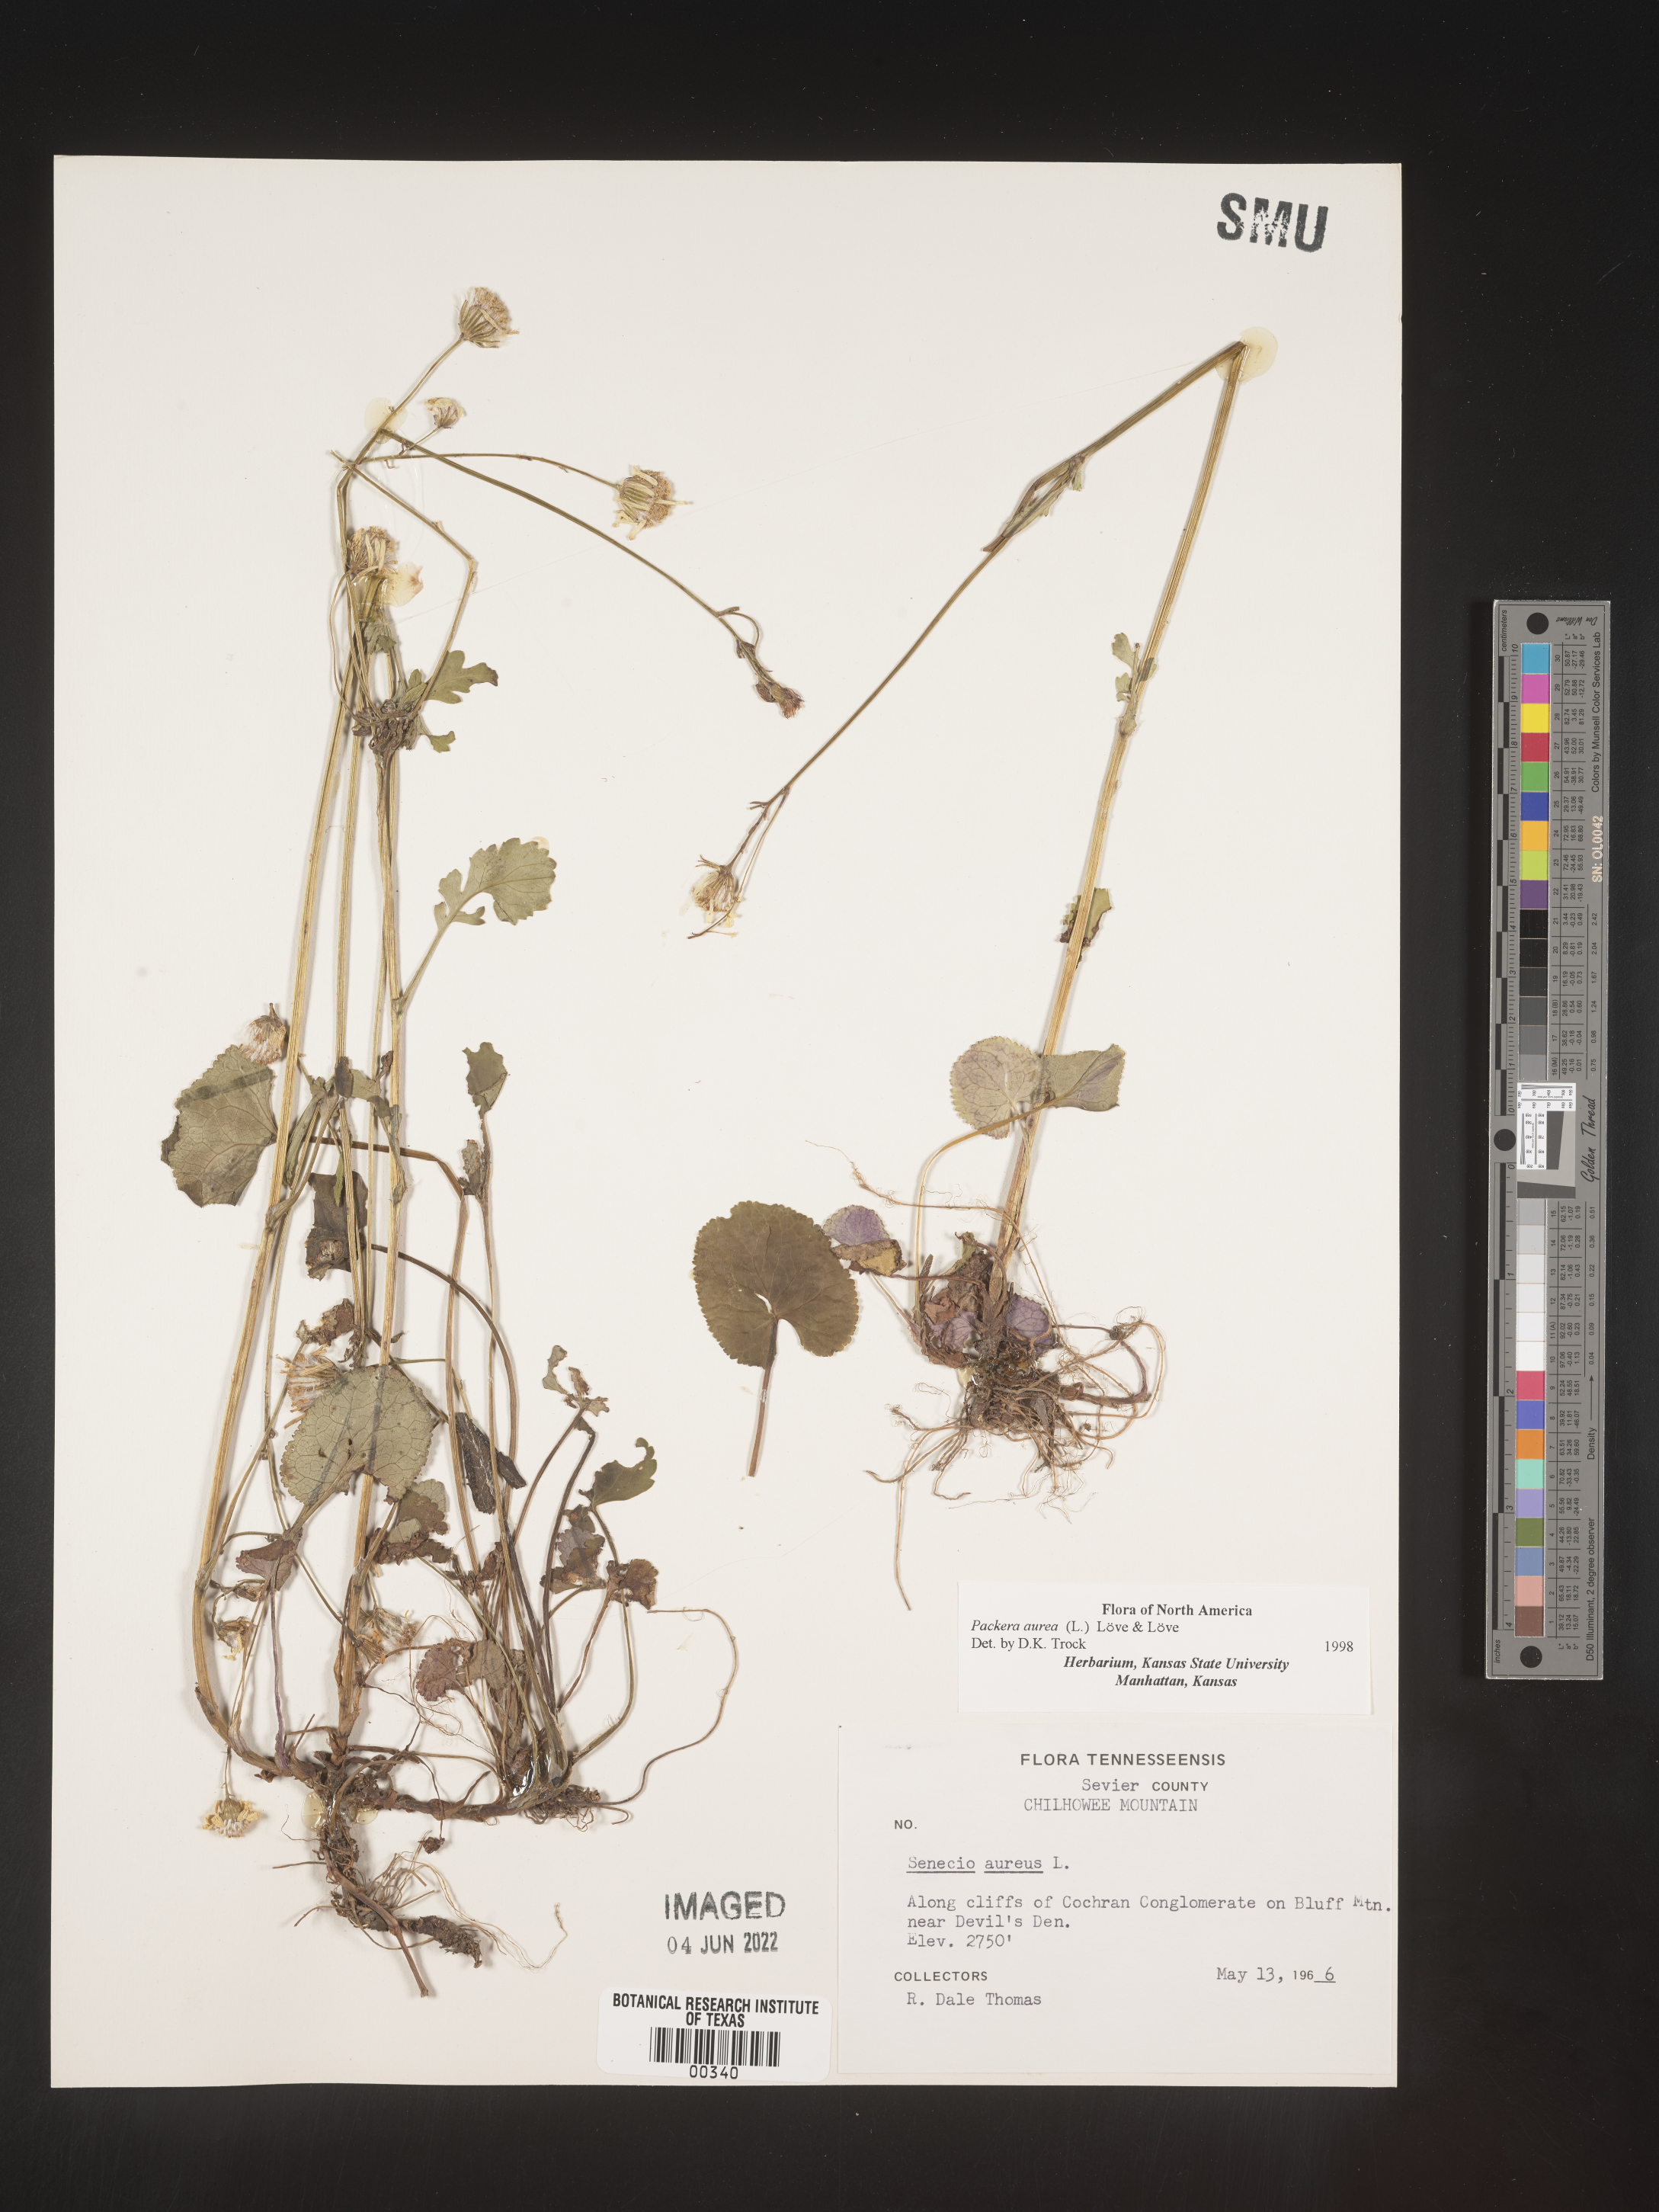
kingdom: Plantae
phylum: Tracheophyta
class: Magnoliopsida
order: Asterales
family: Asteraceae
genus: Packera
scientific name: Packera aurea
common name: Golden groundsel
